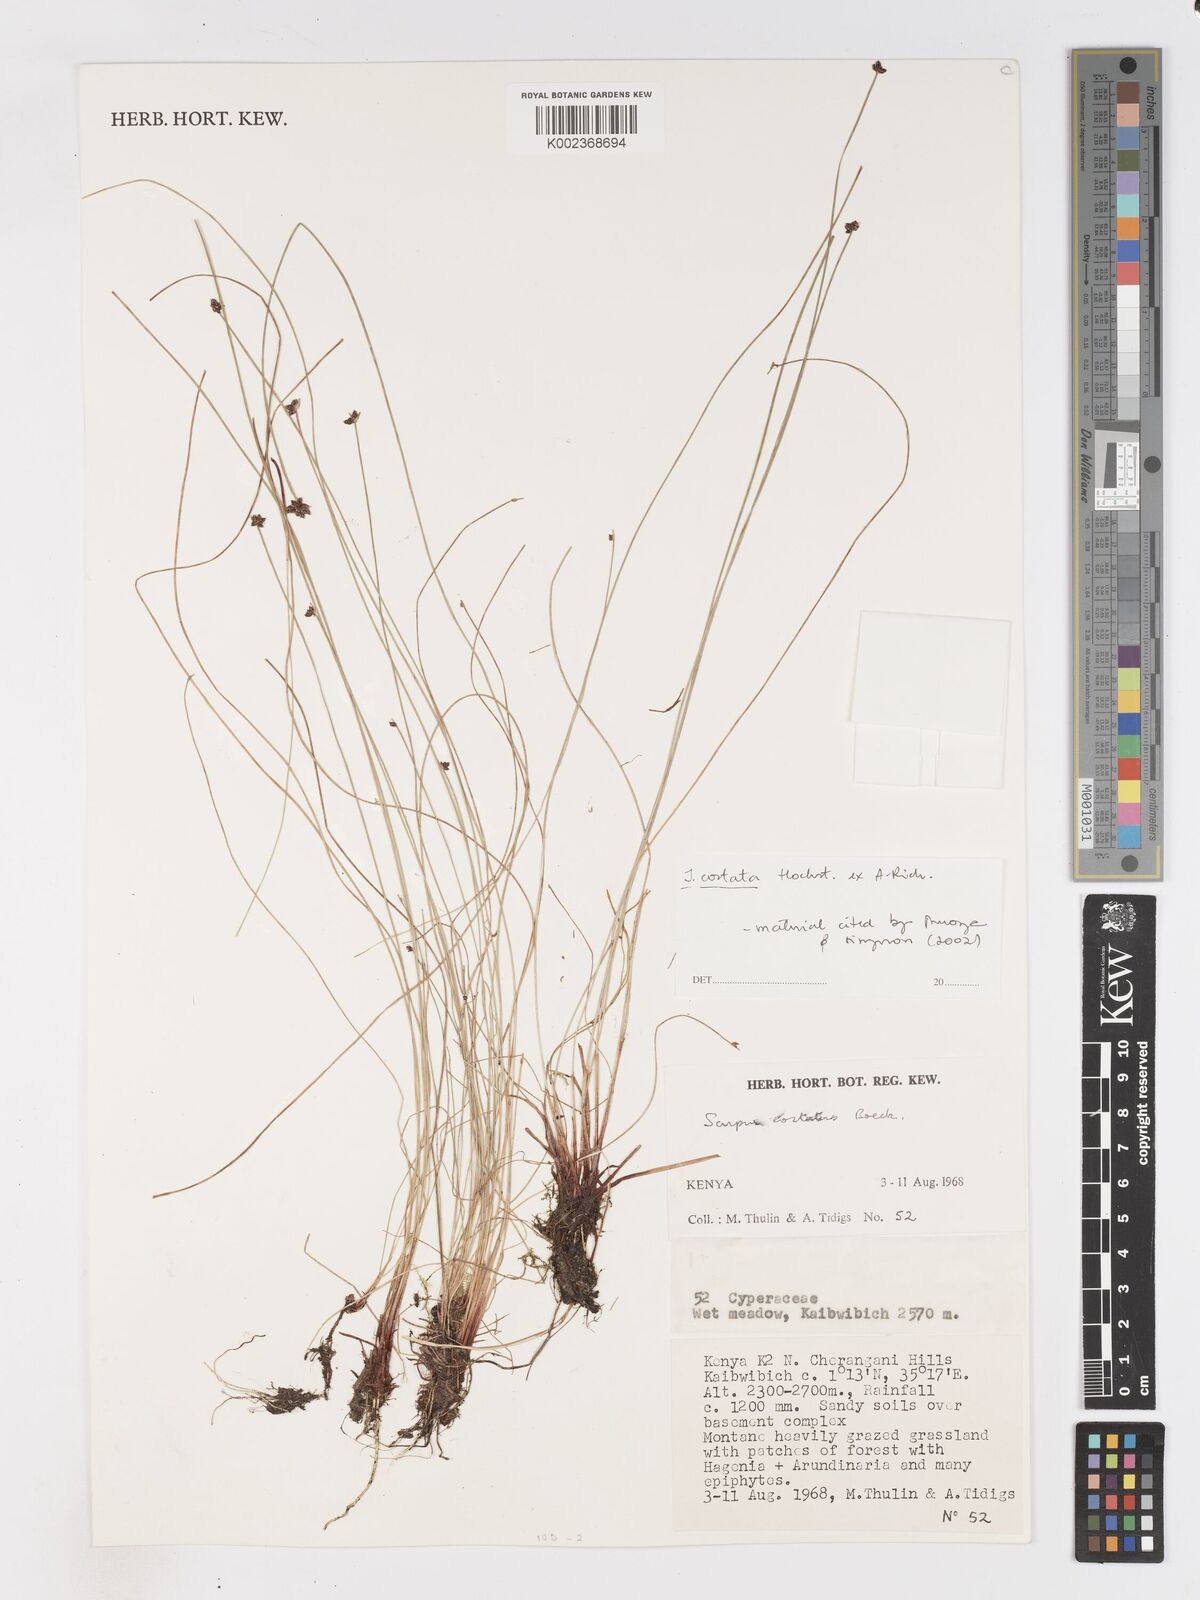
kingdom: Plantae
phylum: Tracheophyta
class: Liliopsida
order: Poales
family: Cyperaceae
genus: Isolepis
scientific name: Isolepis costata
